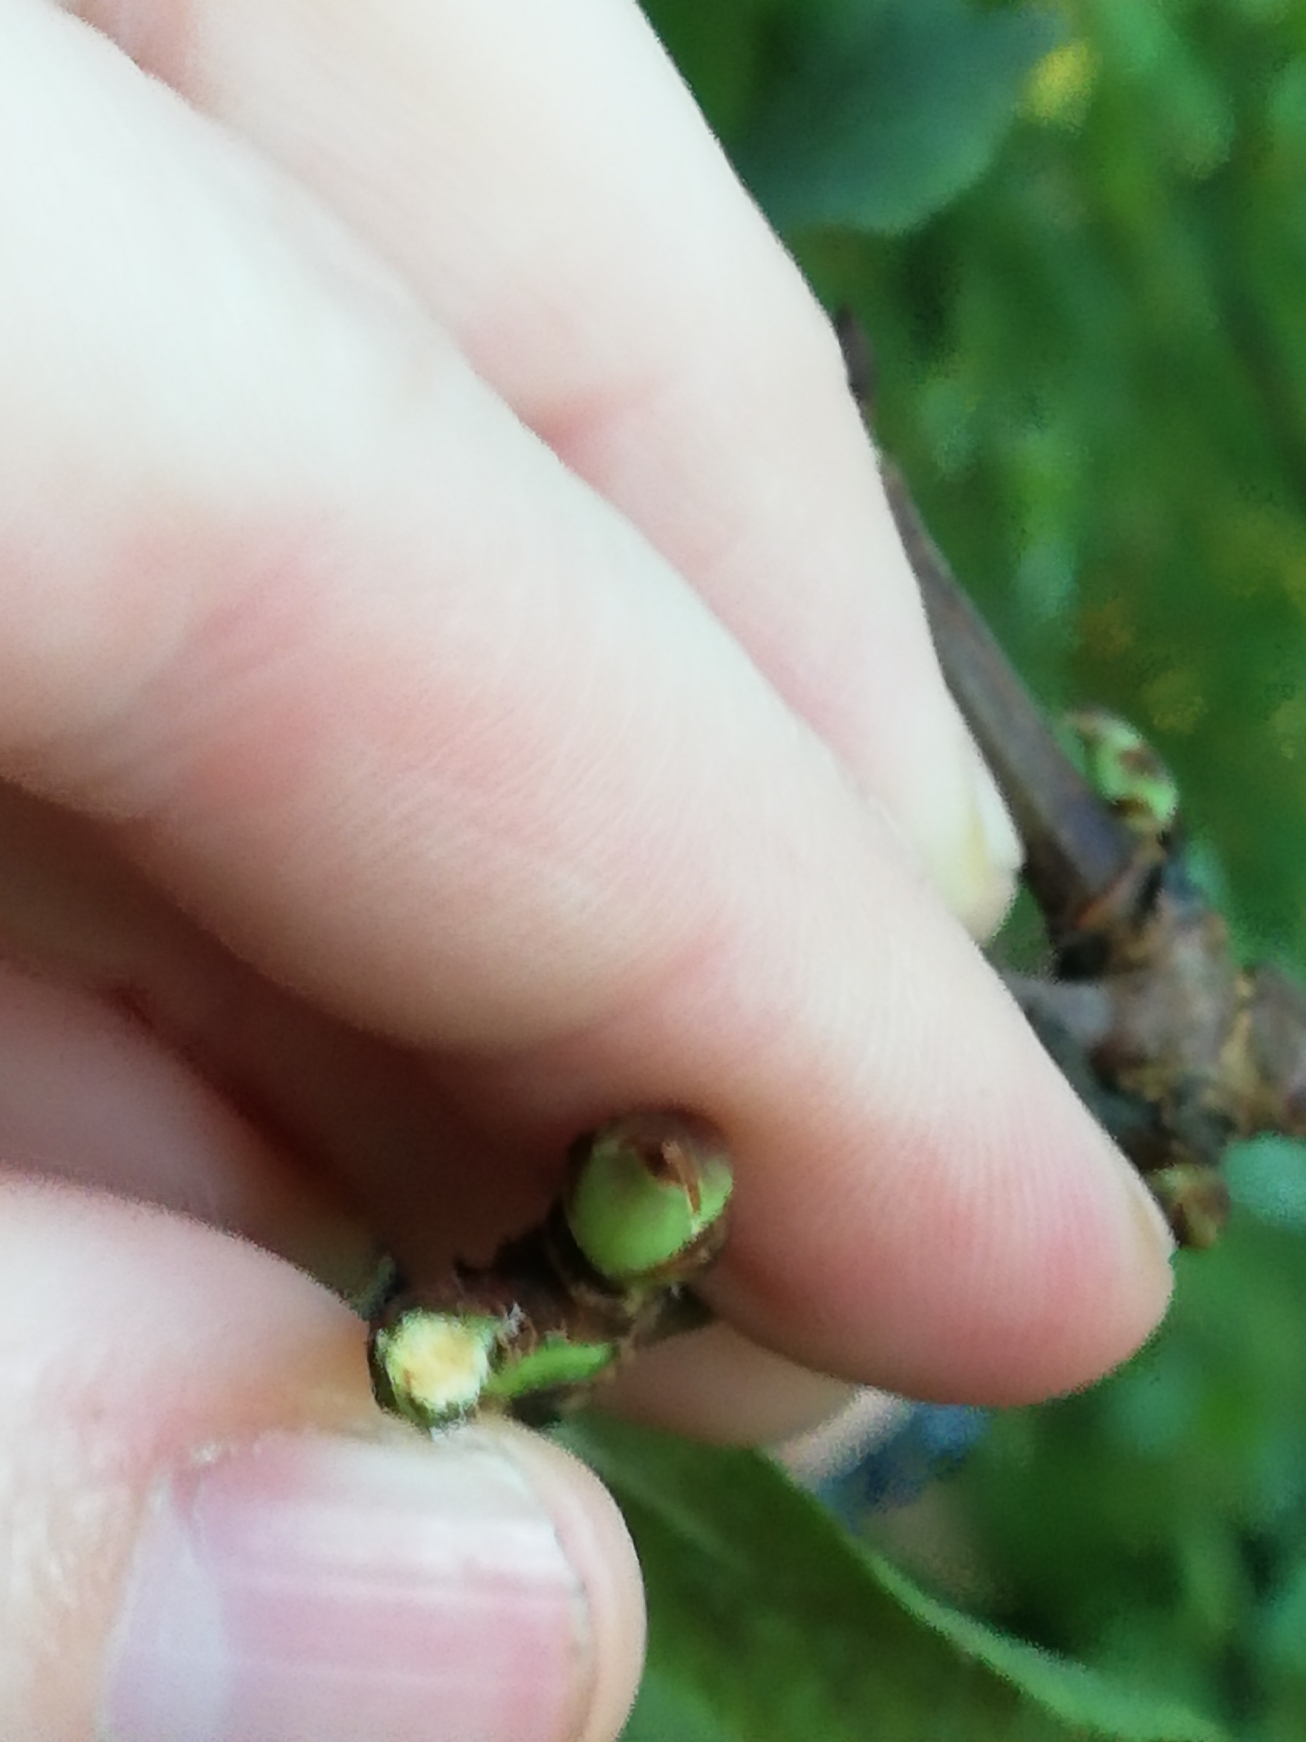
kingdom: Plantae
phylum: Tracheophyta
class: Magnoliopsida
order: Dipsacales
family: Viburnaceae
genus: Sambucus
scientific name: Sambucus racemosa
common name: Drue-hyld
